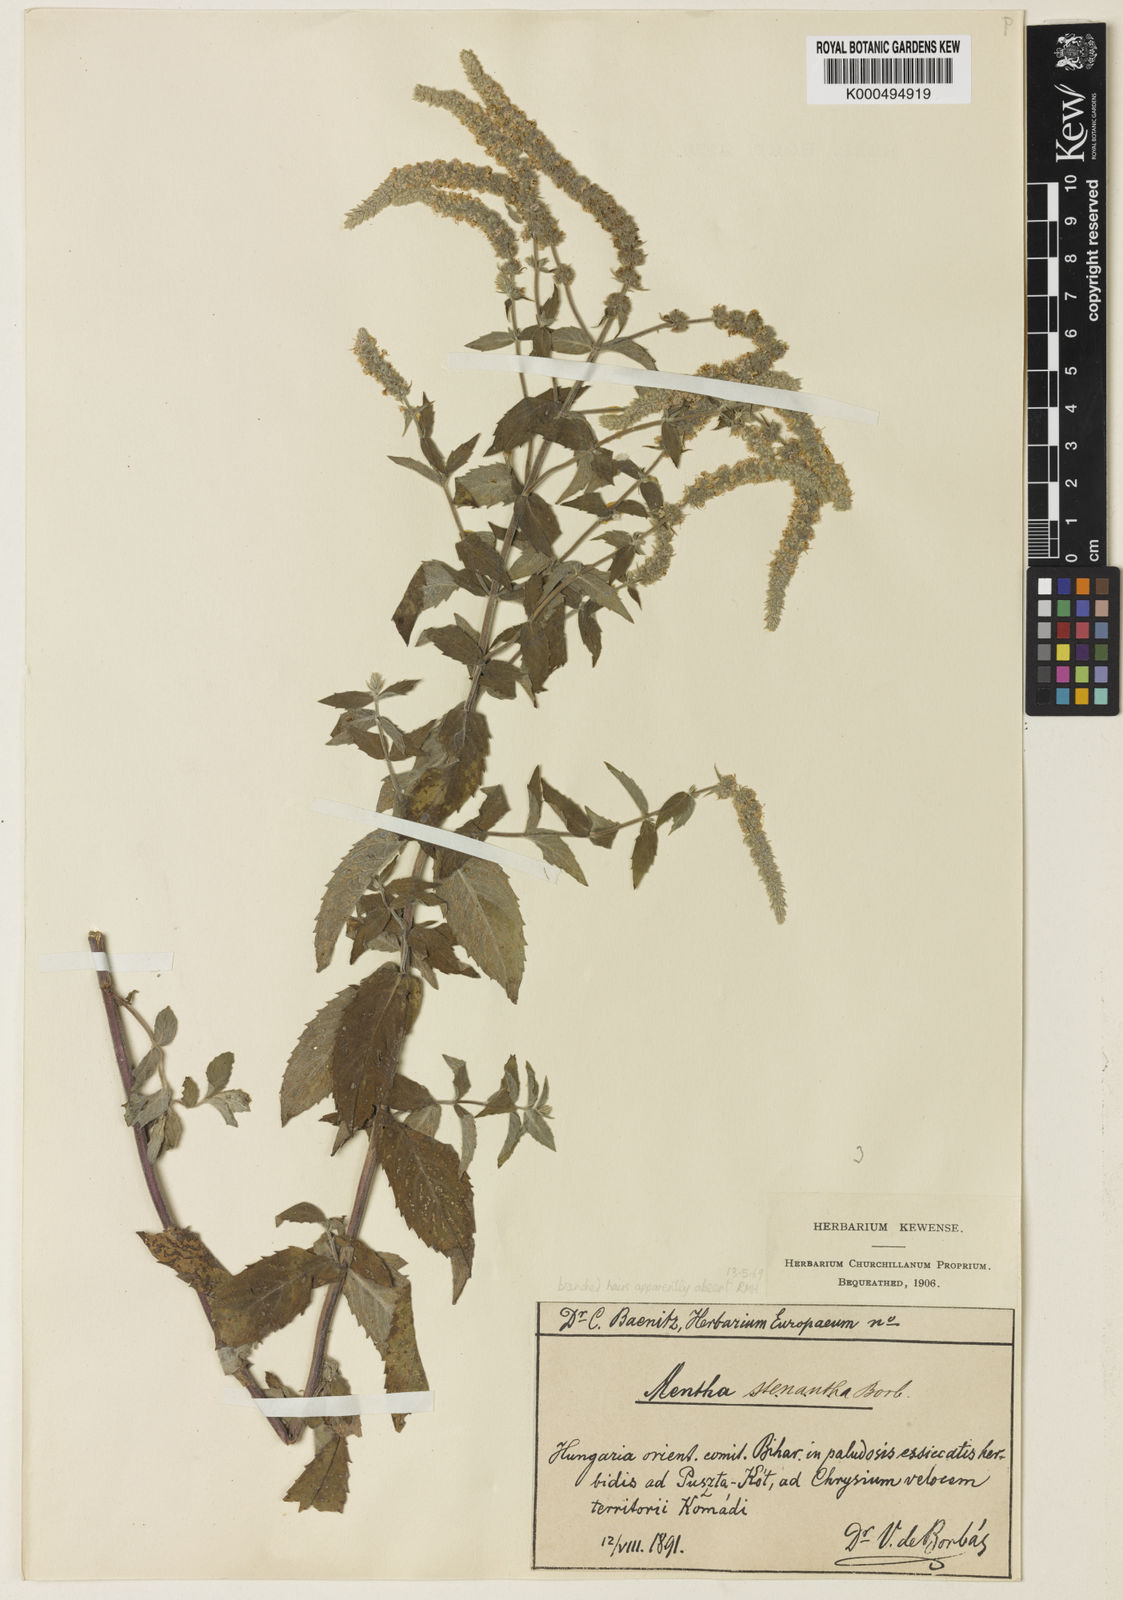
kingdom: Plantae
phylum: Tracheophyta
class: Magnoliopsida
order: Lamiales
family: Lamiaceae
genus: Mentha
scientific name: Mentha spicata
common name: Spearmint
